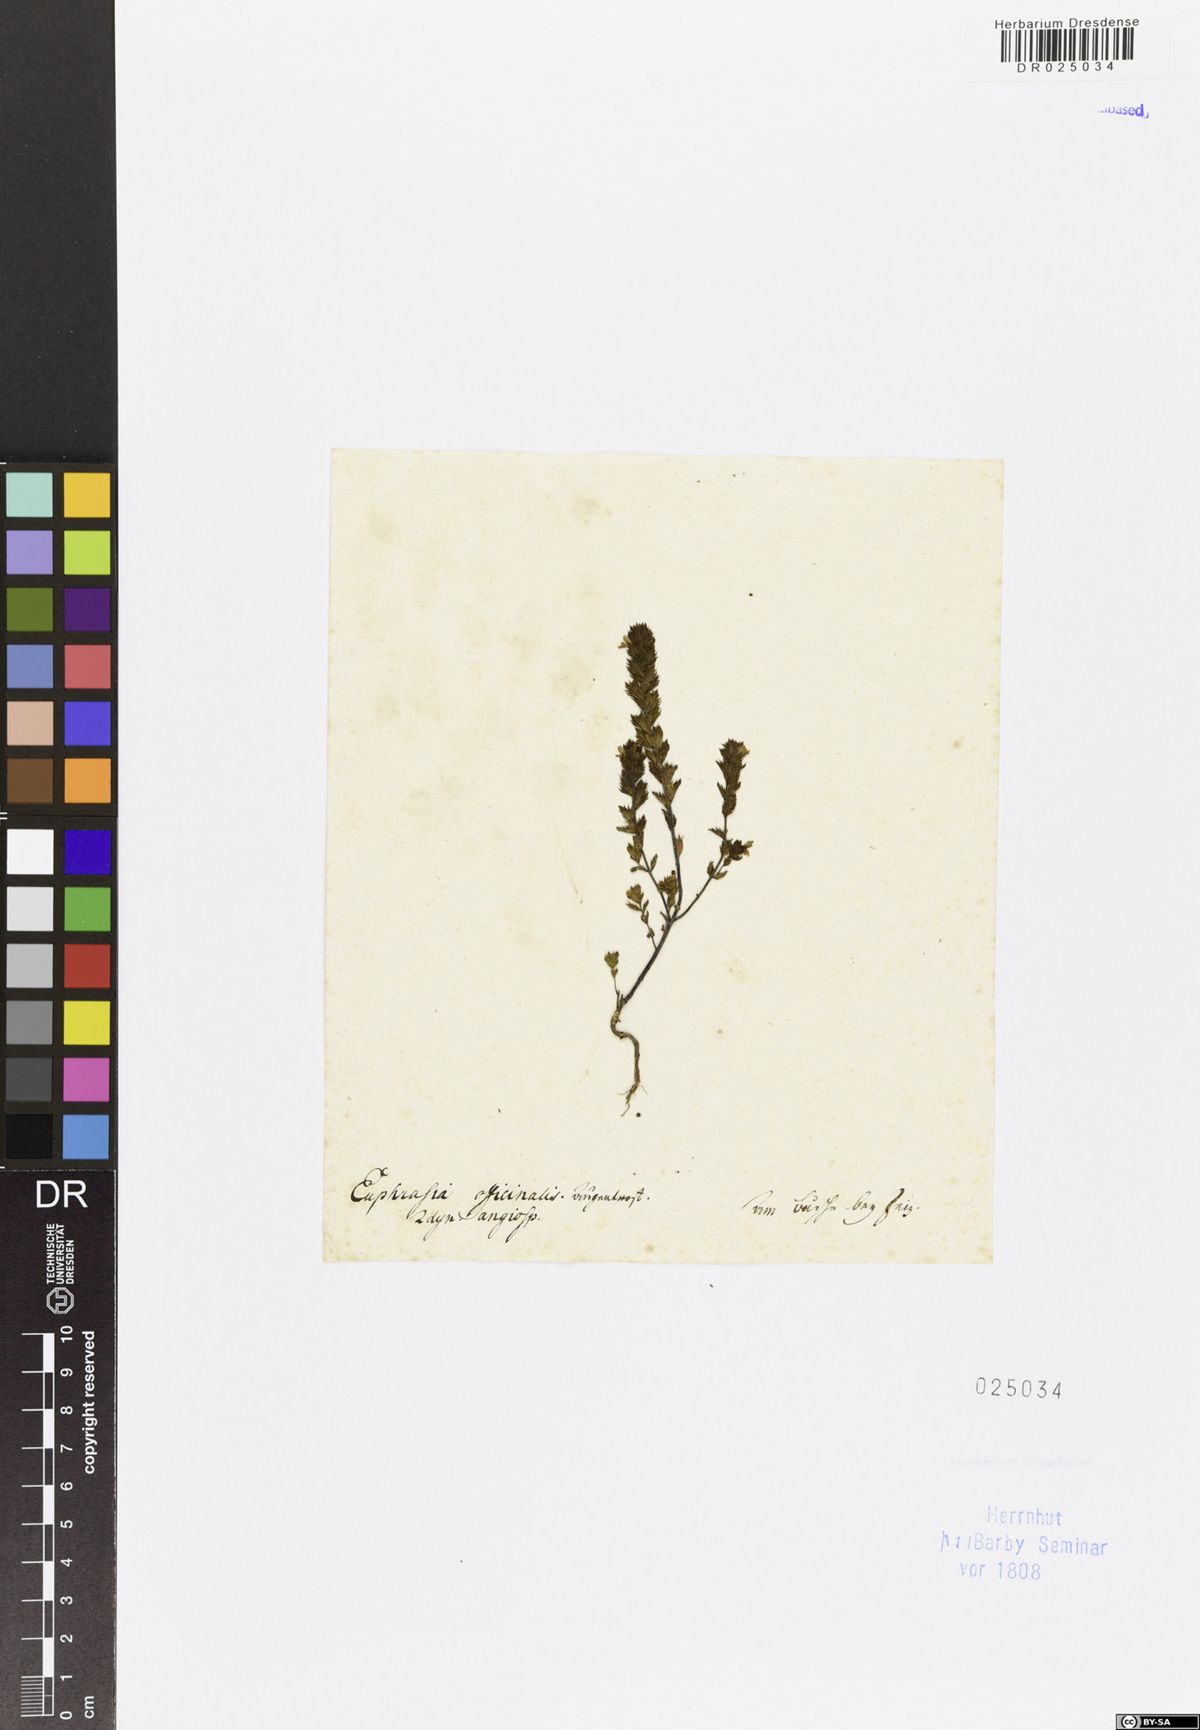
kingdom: Plantae
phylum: Tracheophyta
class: Magnoliopsida
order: Lamiales
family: Orobanchaceae
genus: Euphrasia
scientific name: Euphrasia stricta
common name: Drug eyebright
